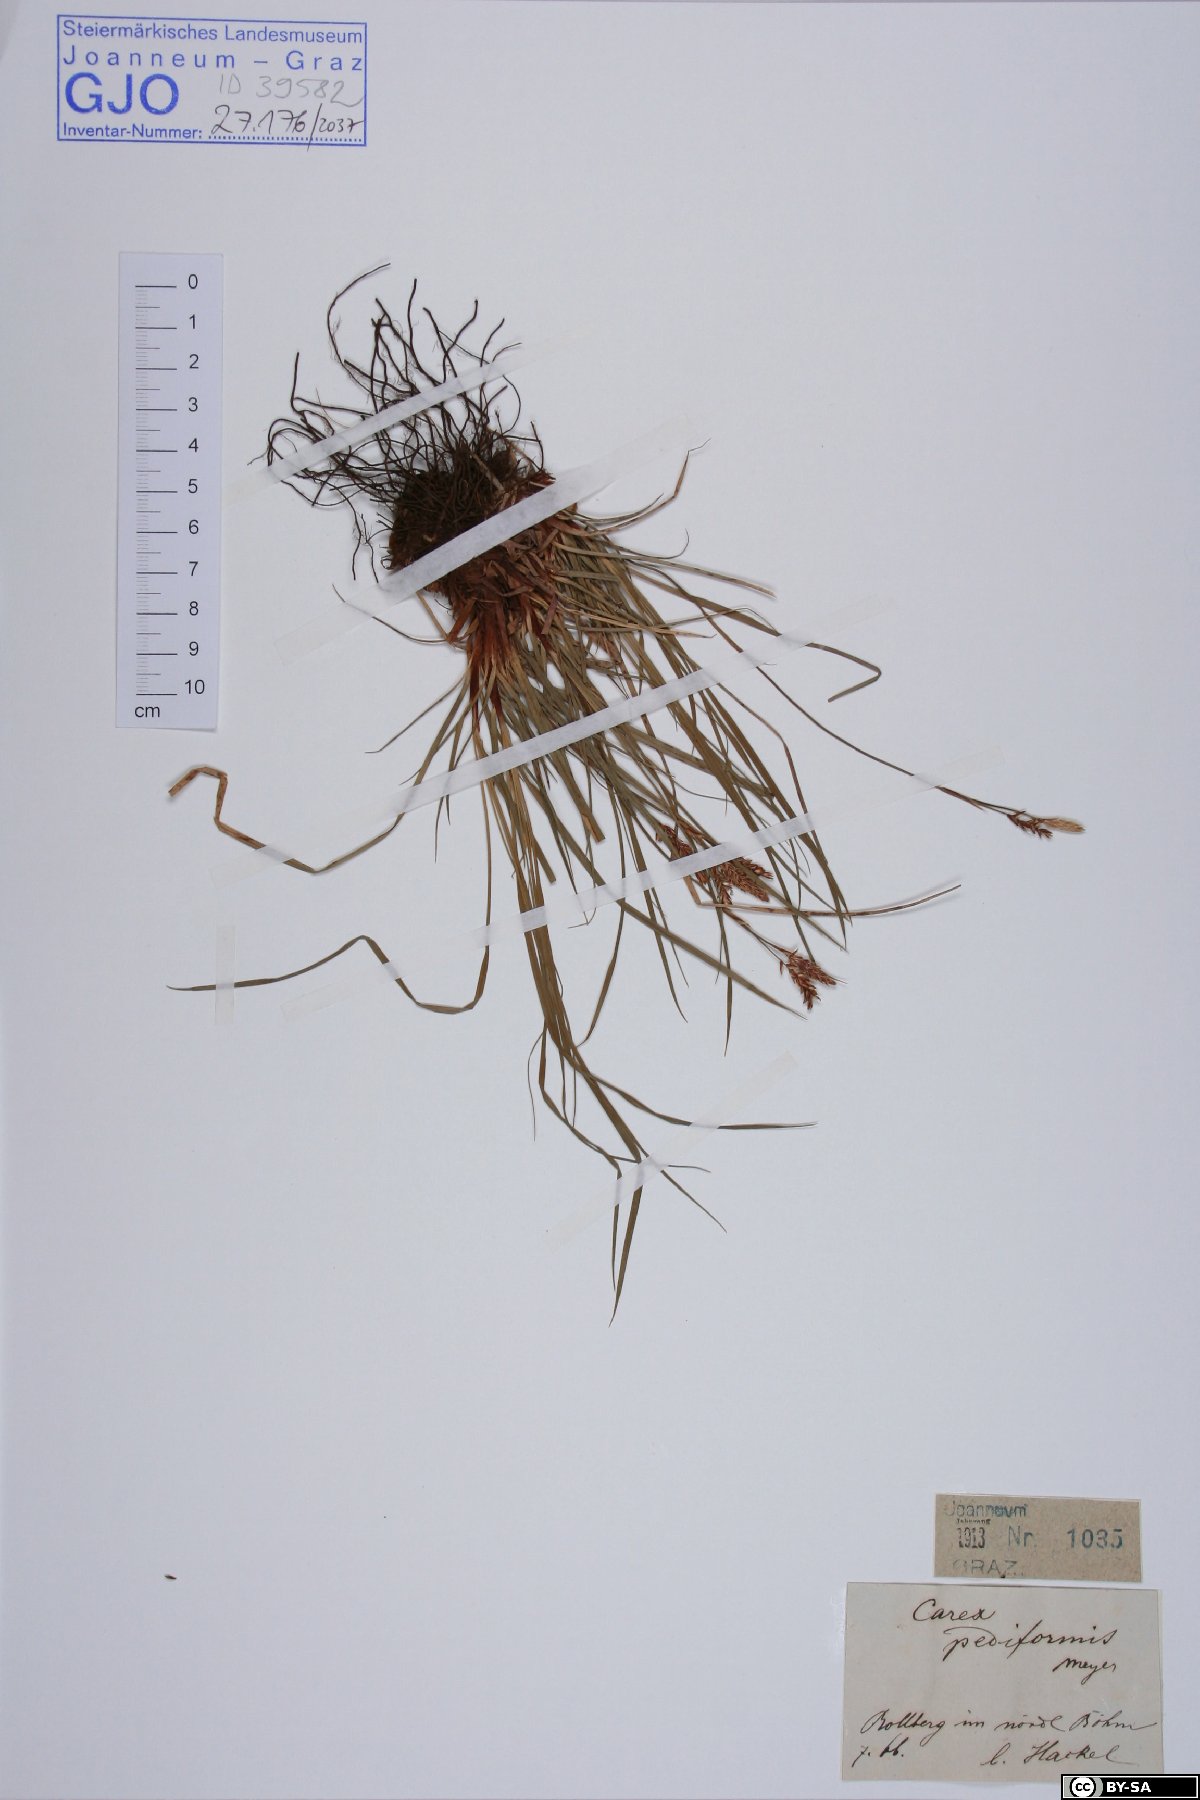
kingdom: Plantae
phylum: Tracheophyta
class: Liliopsida
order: Poales
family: Cyperaceae
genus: Carex
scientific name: Carex pediformis
